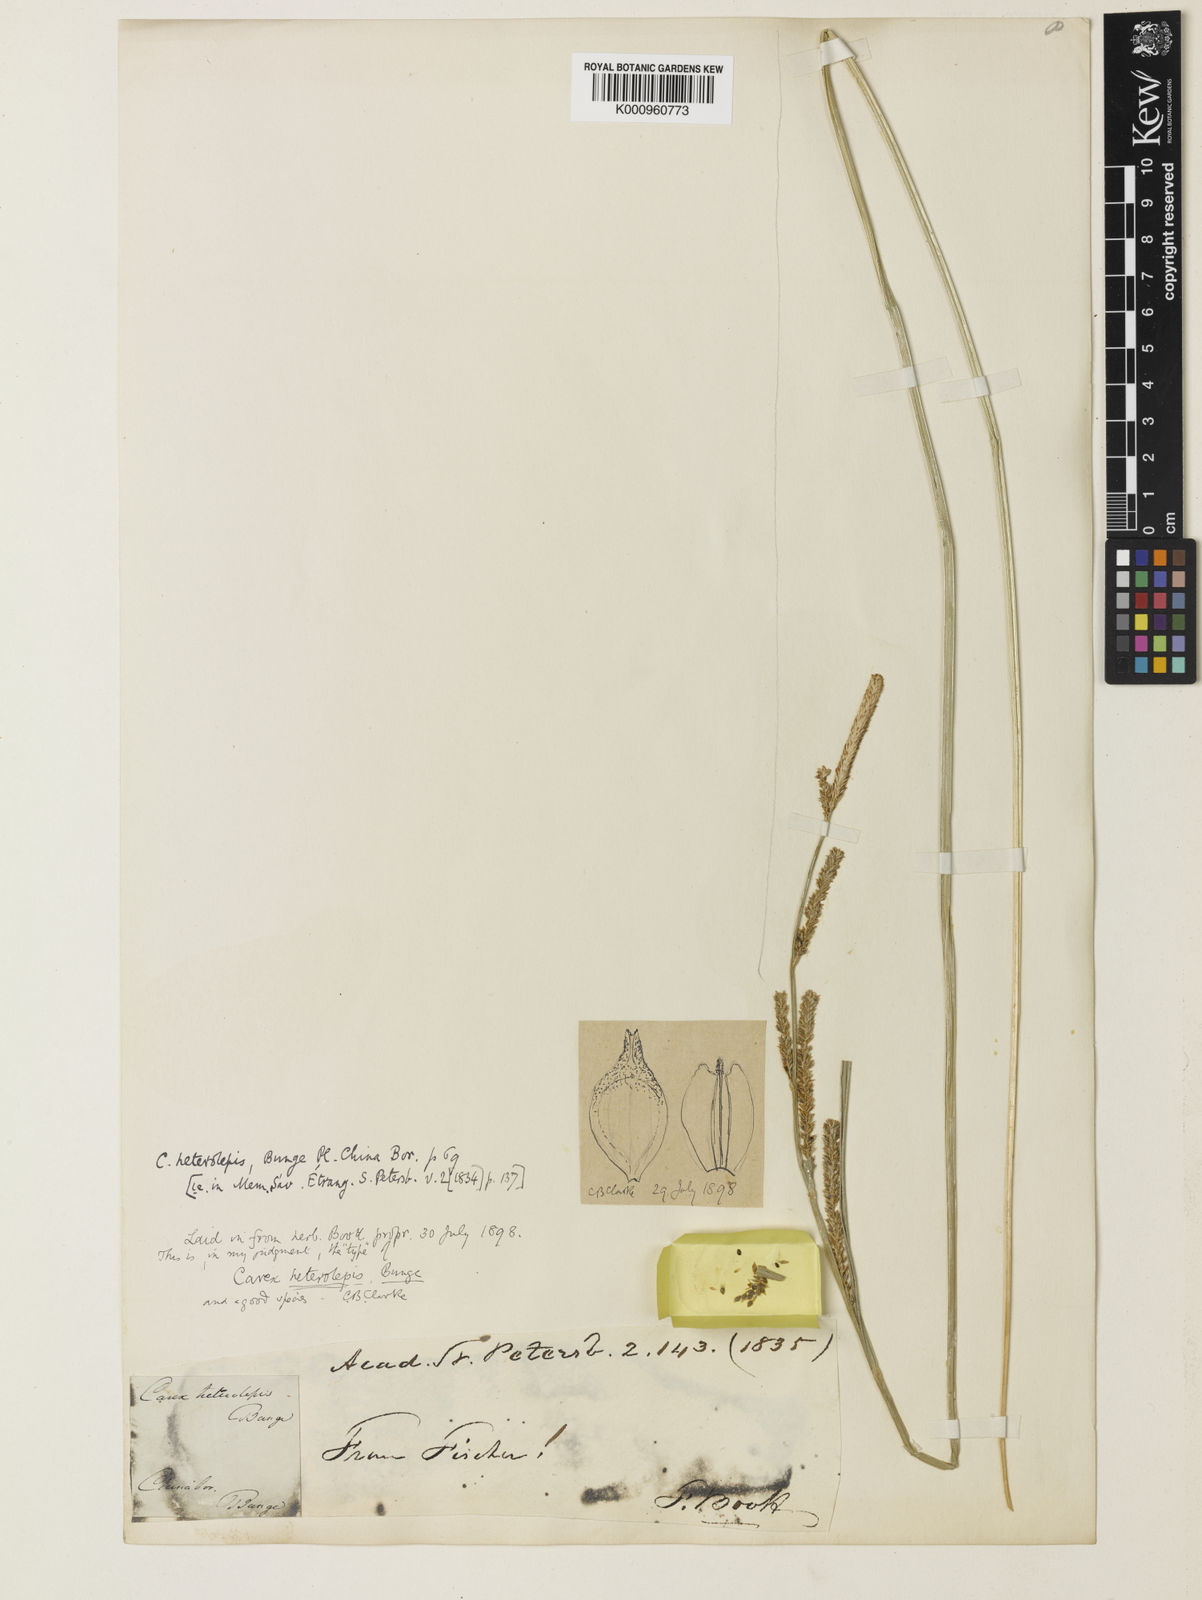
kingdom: Plantae
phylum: Tracheophyta
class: Liliopsida
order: Poales
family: Cyperaceae
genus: Carex
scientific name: Carex heterolepis
